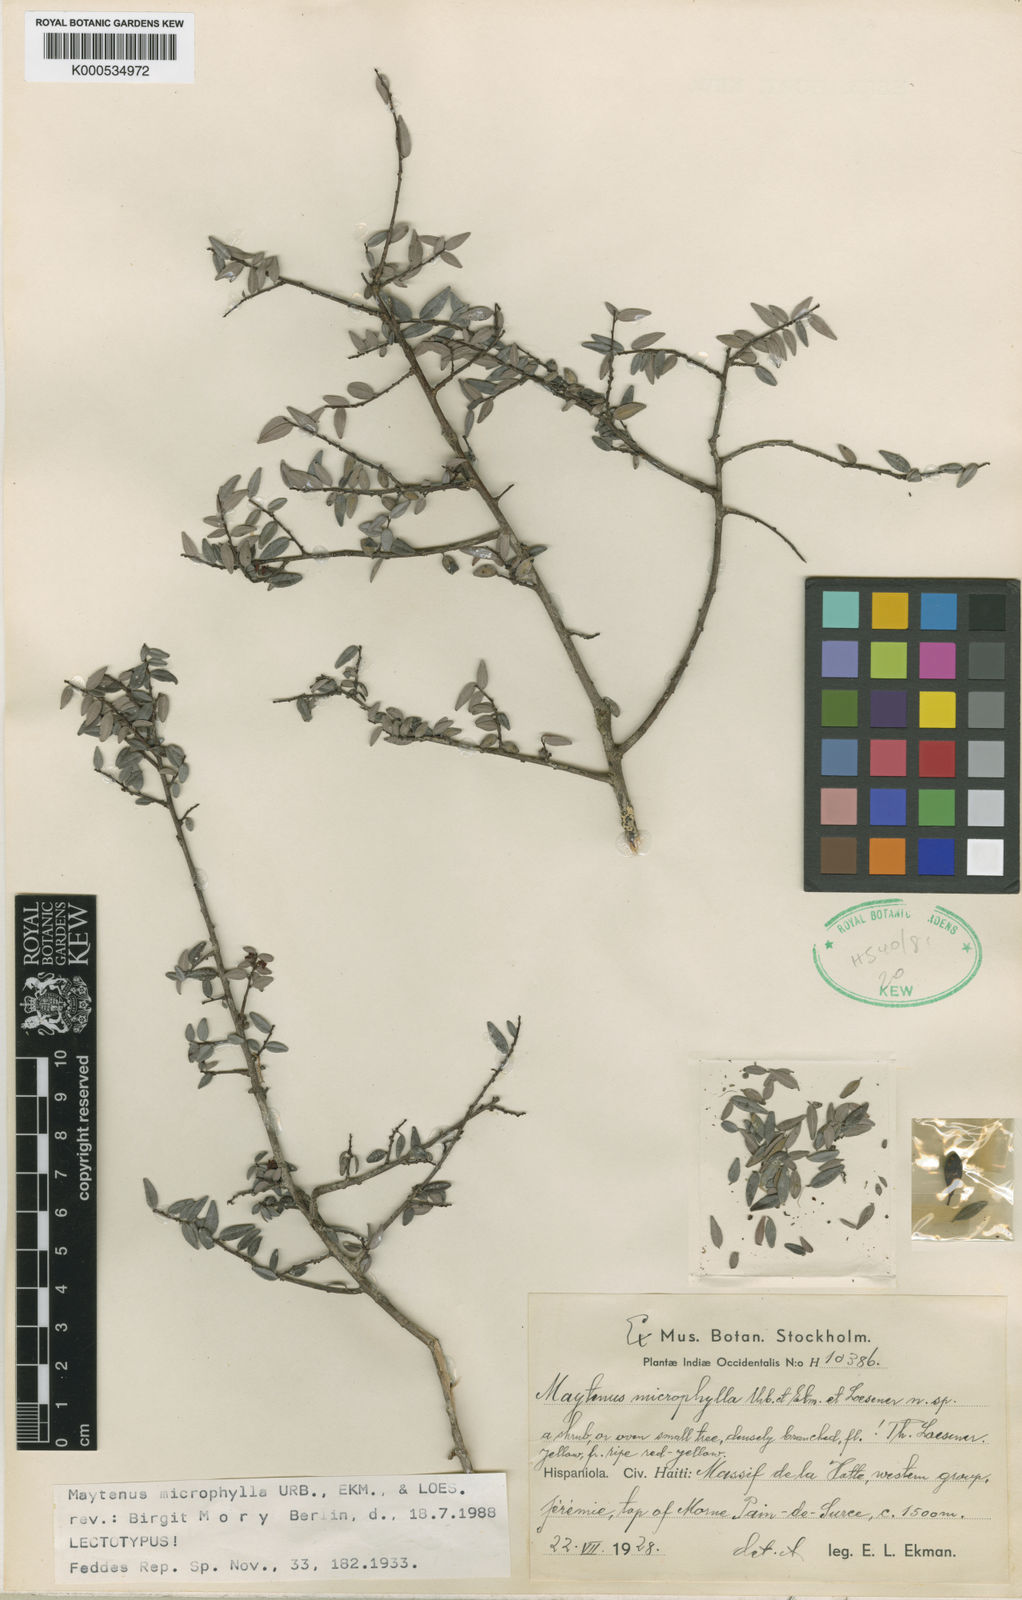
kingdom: Plantae
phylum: Tracheophyta
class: Magnoliopsida
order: Celastrales
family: Celastraceae
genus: Monteverdia
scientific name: Monteverdia microphylla
